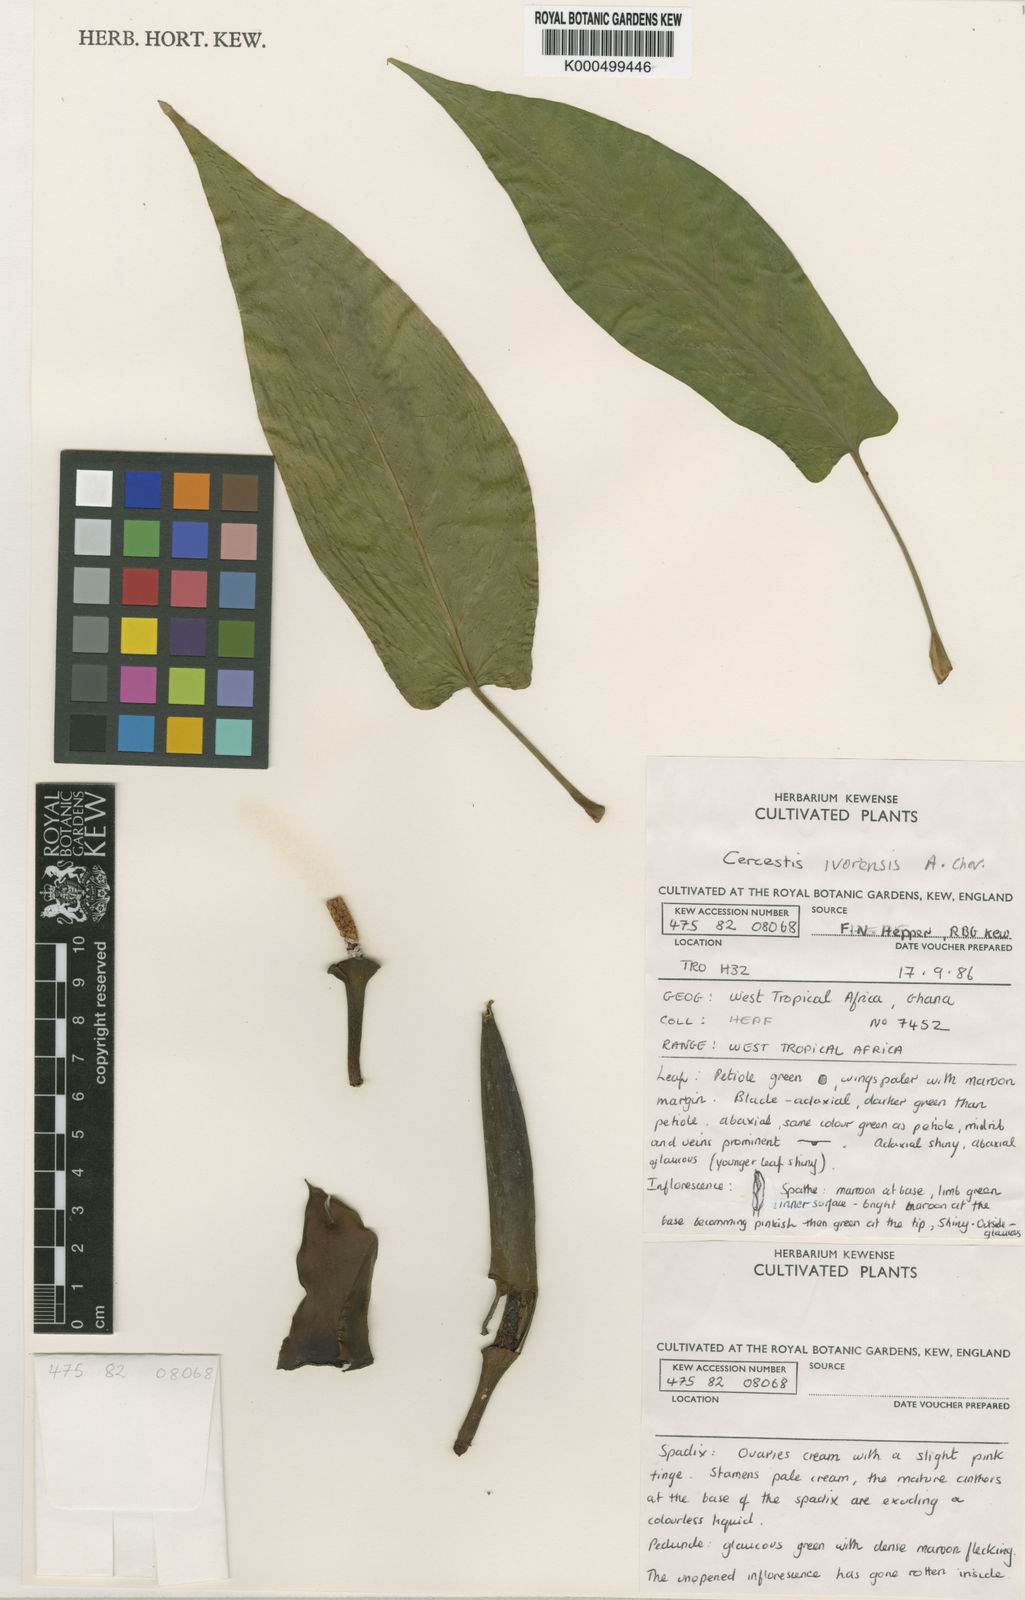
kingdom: Plantae
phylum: Tracheophyta
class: Liliopsida
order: Alismatales
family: Araceae
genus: Cercestis
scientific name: Cercestis ivorensis
